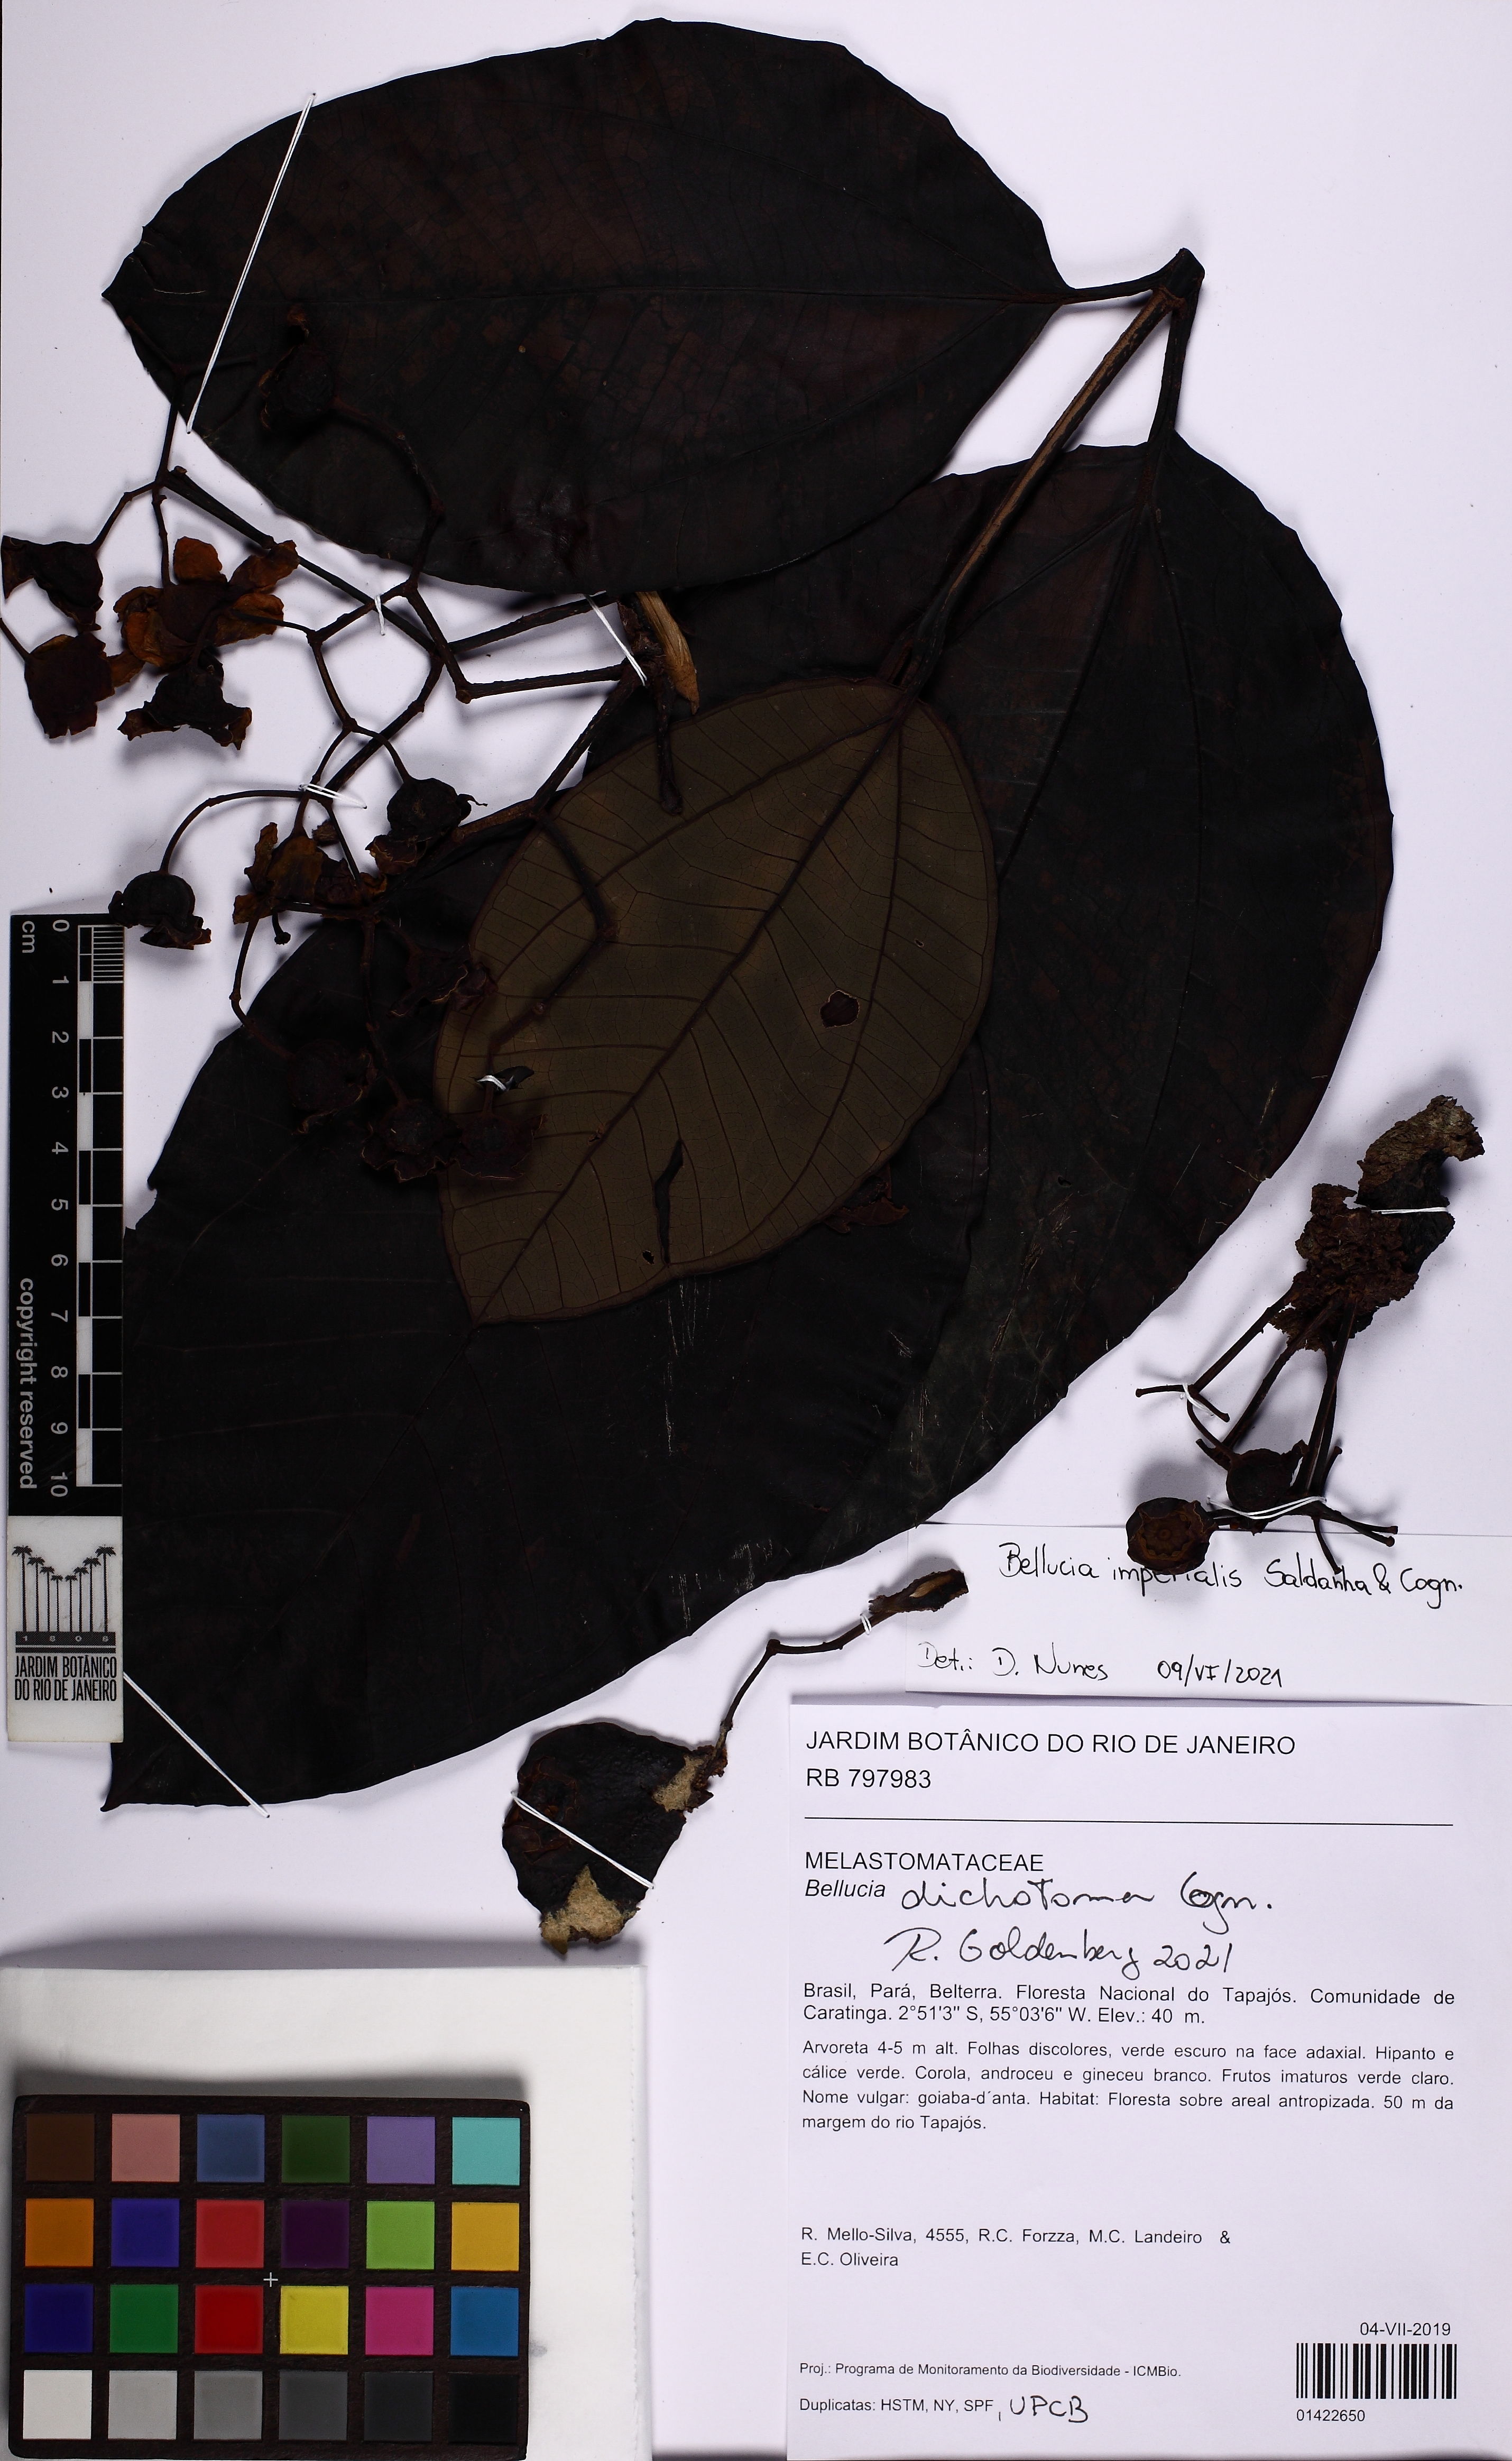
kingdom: Plantae
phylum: Tracheophyta
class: Magnoliopsida
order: Myrtales
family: Melastomataceae
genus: Bellucia
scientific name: Bellucia imperialis
